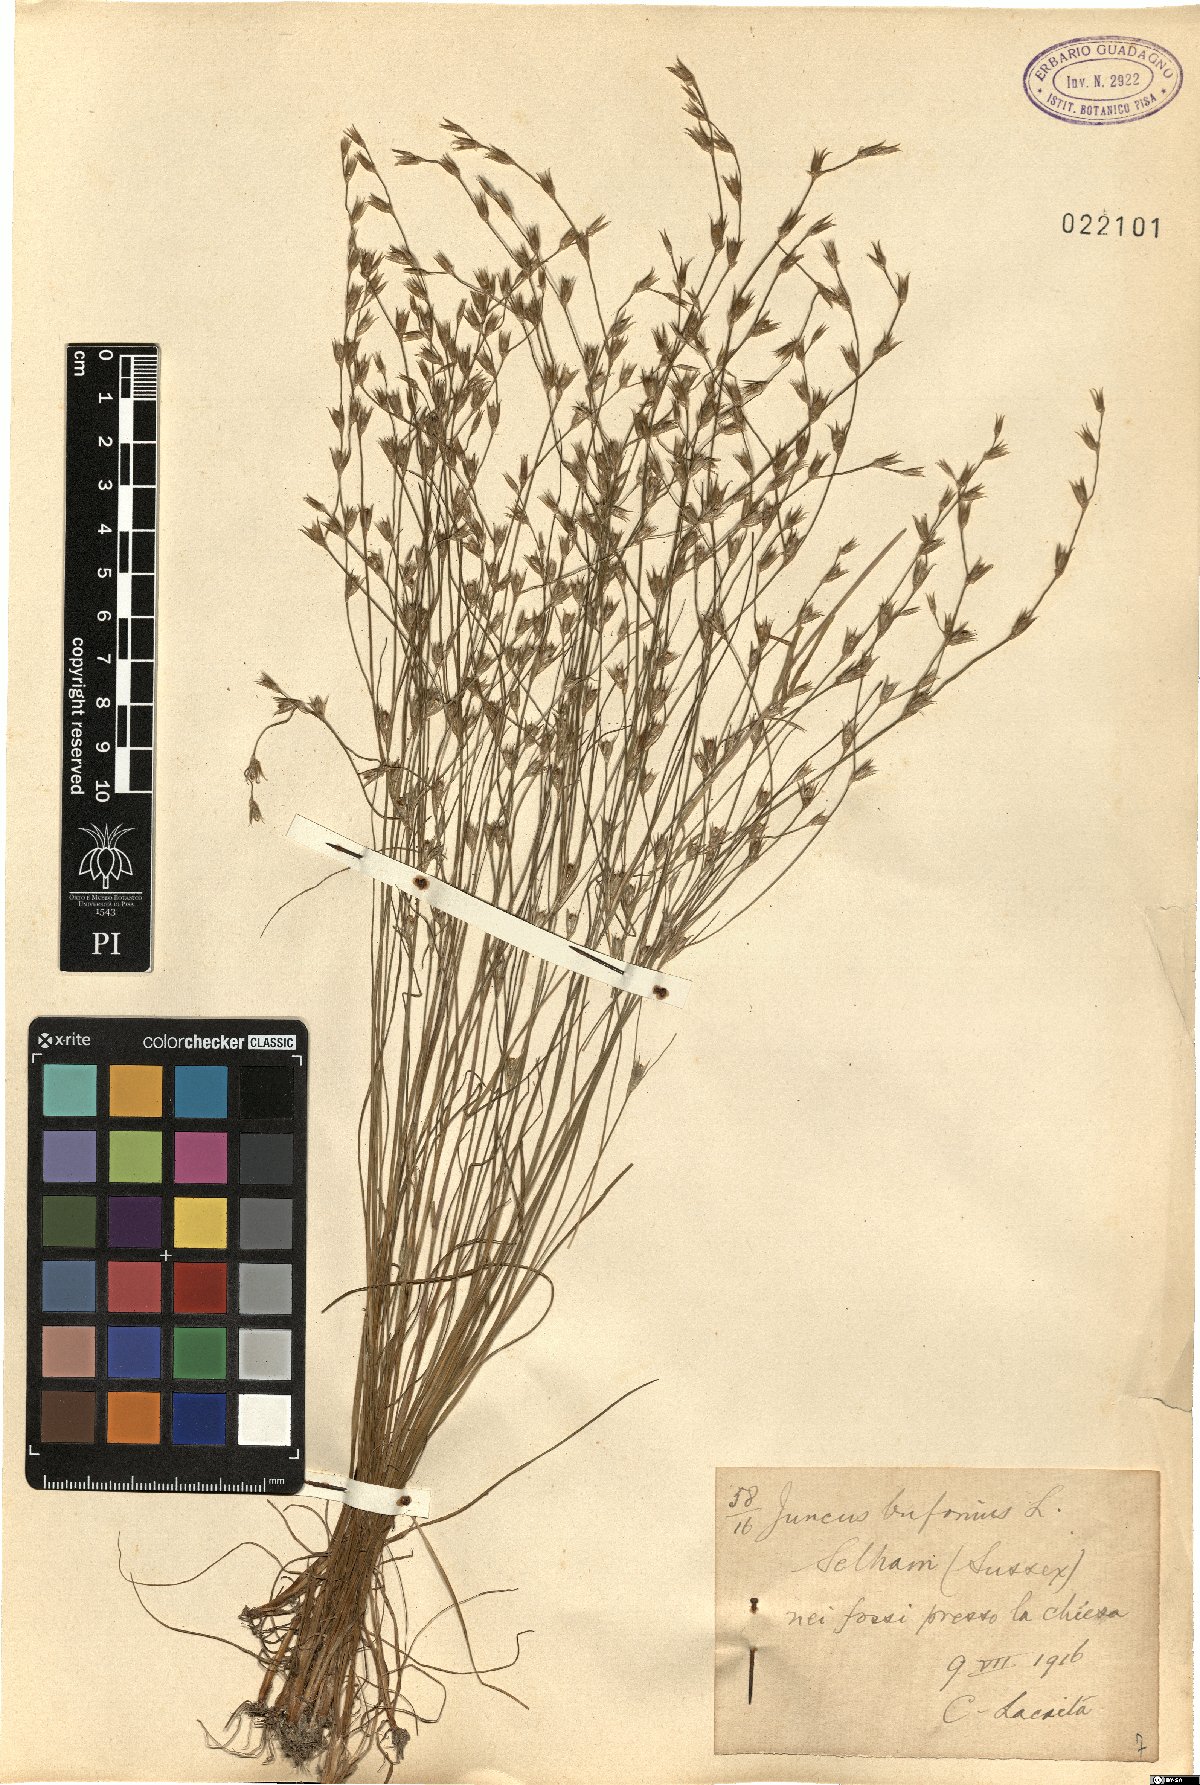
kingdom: Plantae
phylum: Tracheophyta
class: Liliopsida
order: Poales
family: Juncaceae
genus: Juncus
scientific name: Juncus bufonius
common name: Toad rush
